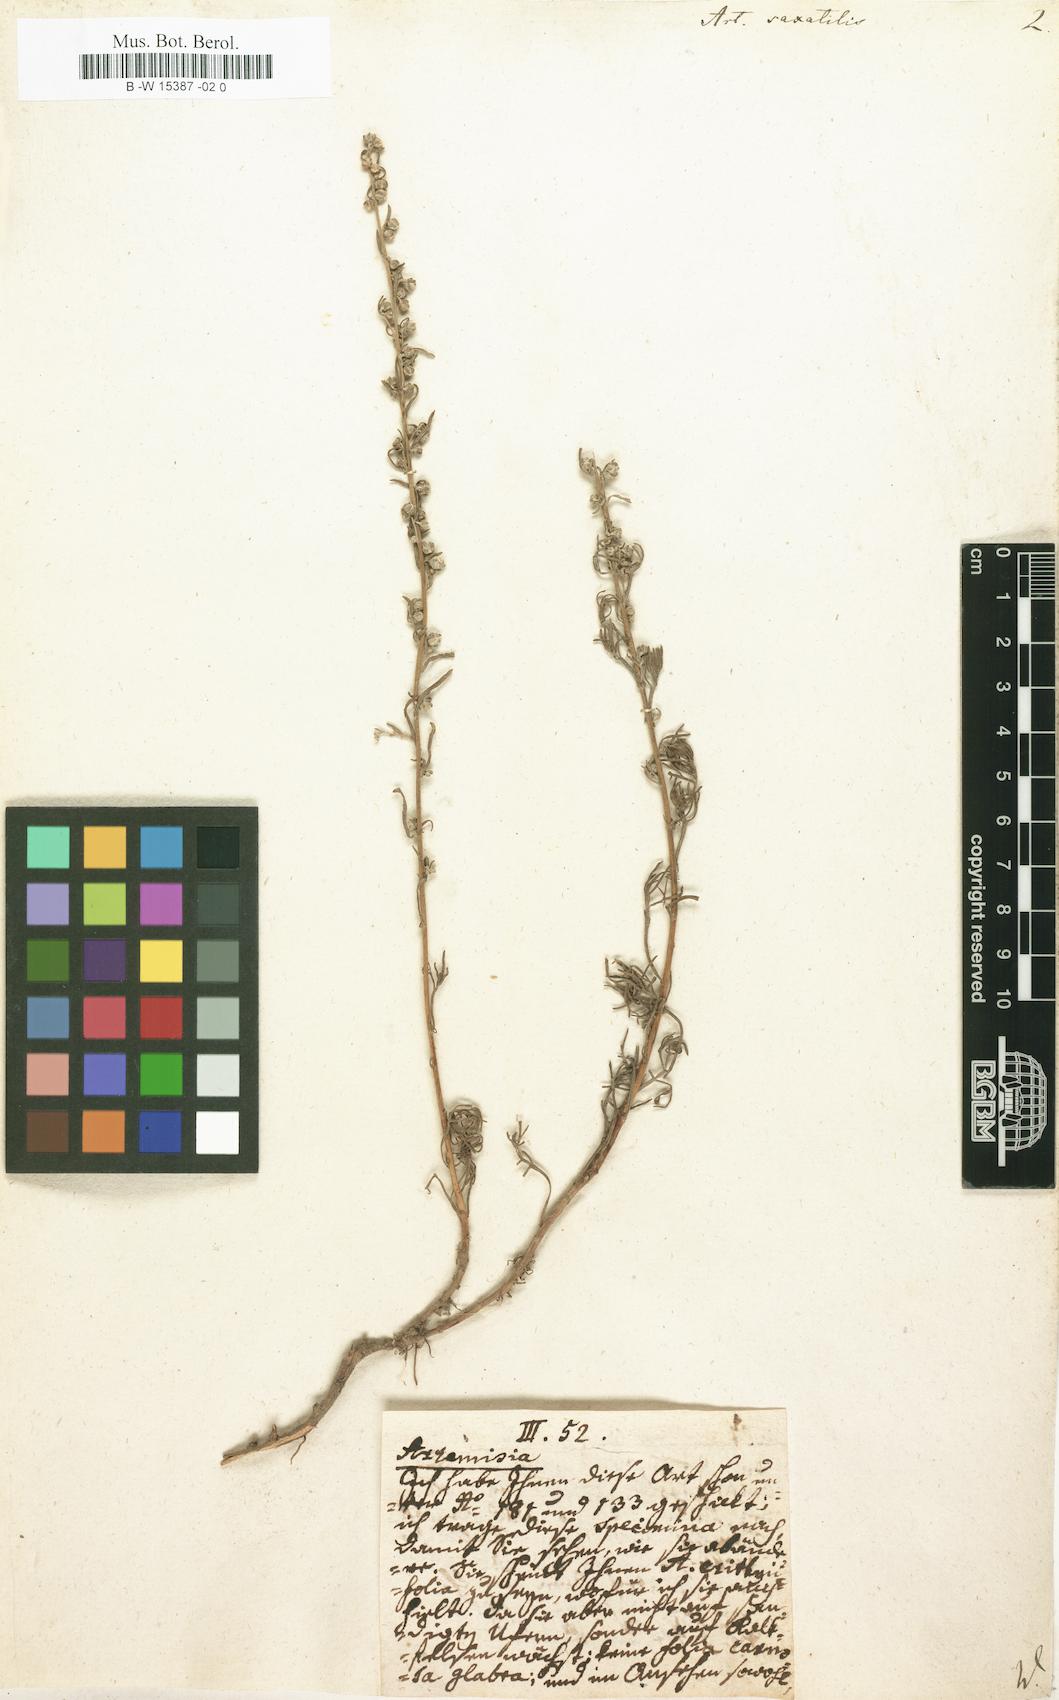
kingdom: Plantae
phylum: Tracheophyta
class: Magnoliopsida
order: Asterales
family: Asteraceae
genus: Artemisia
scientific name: Artemisia alba
